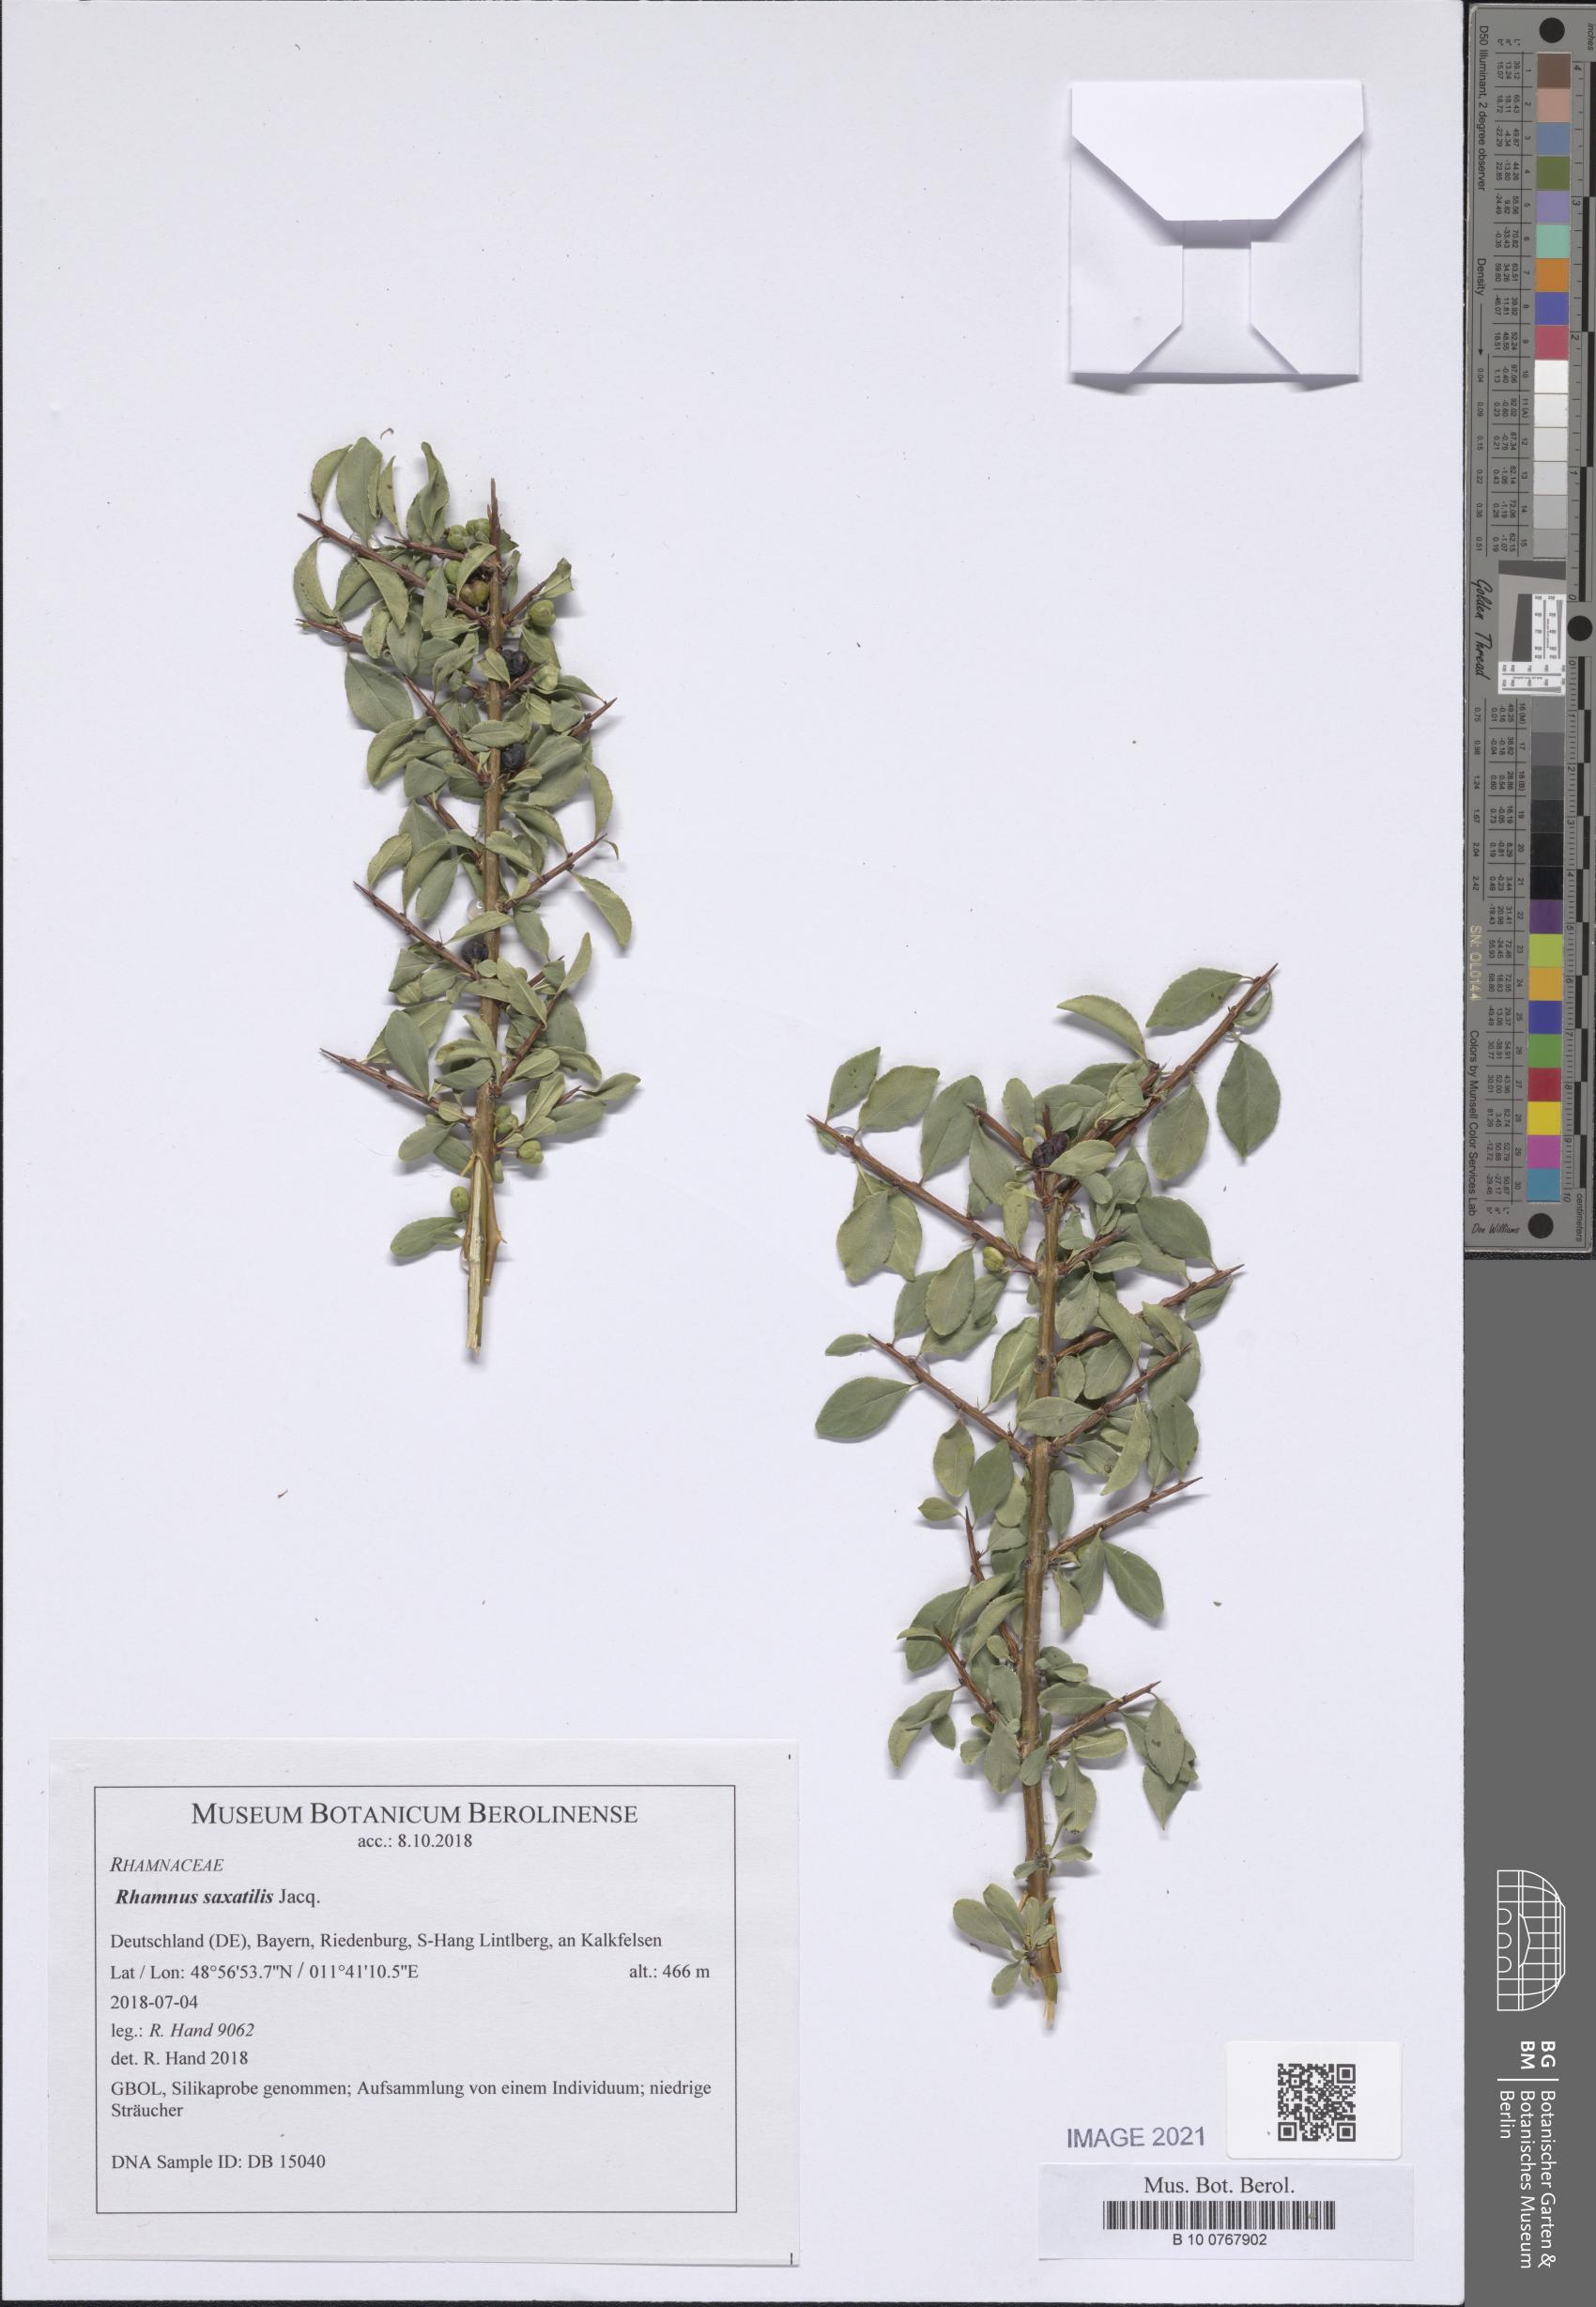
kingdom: Plantae
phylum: Tracheophyta
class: Magnoliopsida
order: Rosales
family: Rhamnaceae
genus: Rhamnus
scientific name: Rhamnus saxatilis
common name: Rock buckthorn
